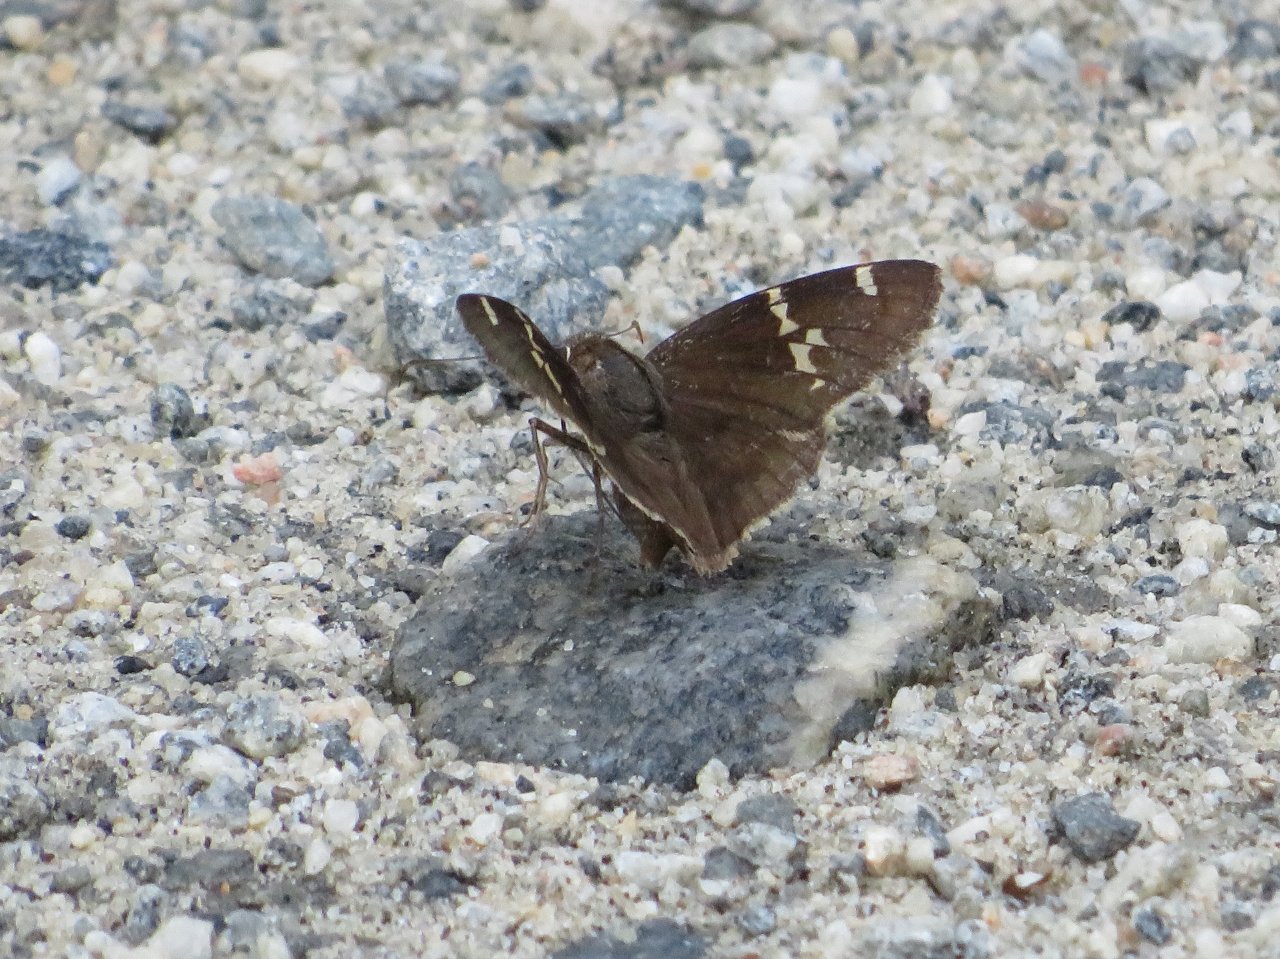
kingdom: Animalia
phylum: Arthropoda
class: Insecta
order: Lepidoptera
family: Hesperiidae
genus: Autochton
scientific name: Autochton
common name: Southern Cloudywing
